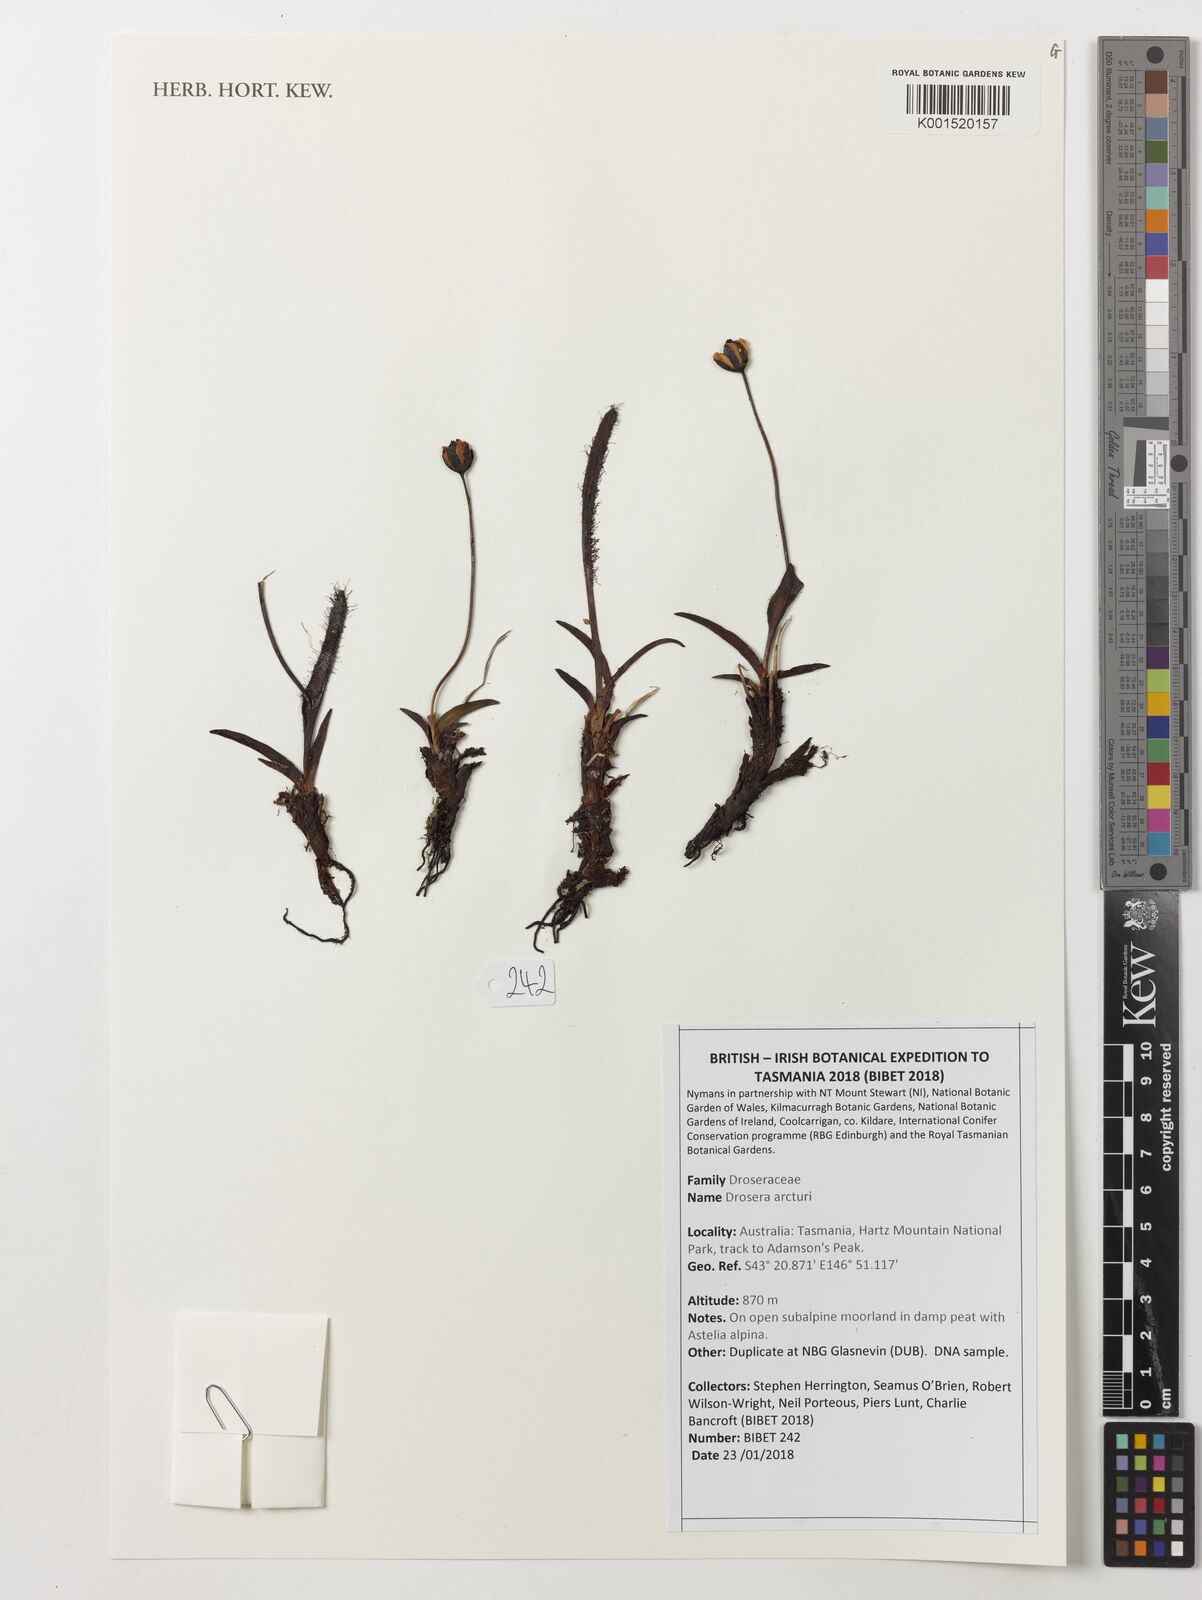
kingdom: Plantae
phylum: Tracheophyta
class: Magnoliopsida
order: Caryophyllales
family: Droseraceae
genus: Drosera
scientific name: Drosera arcturi
